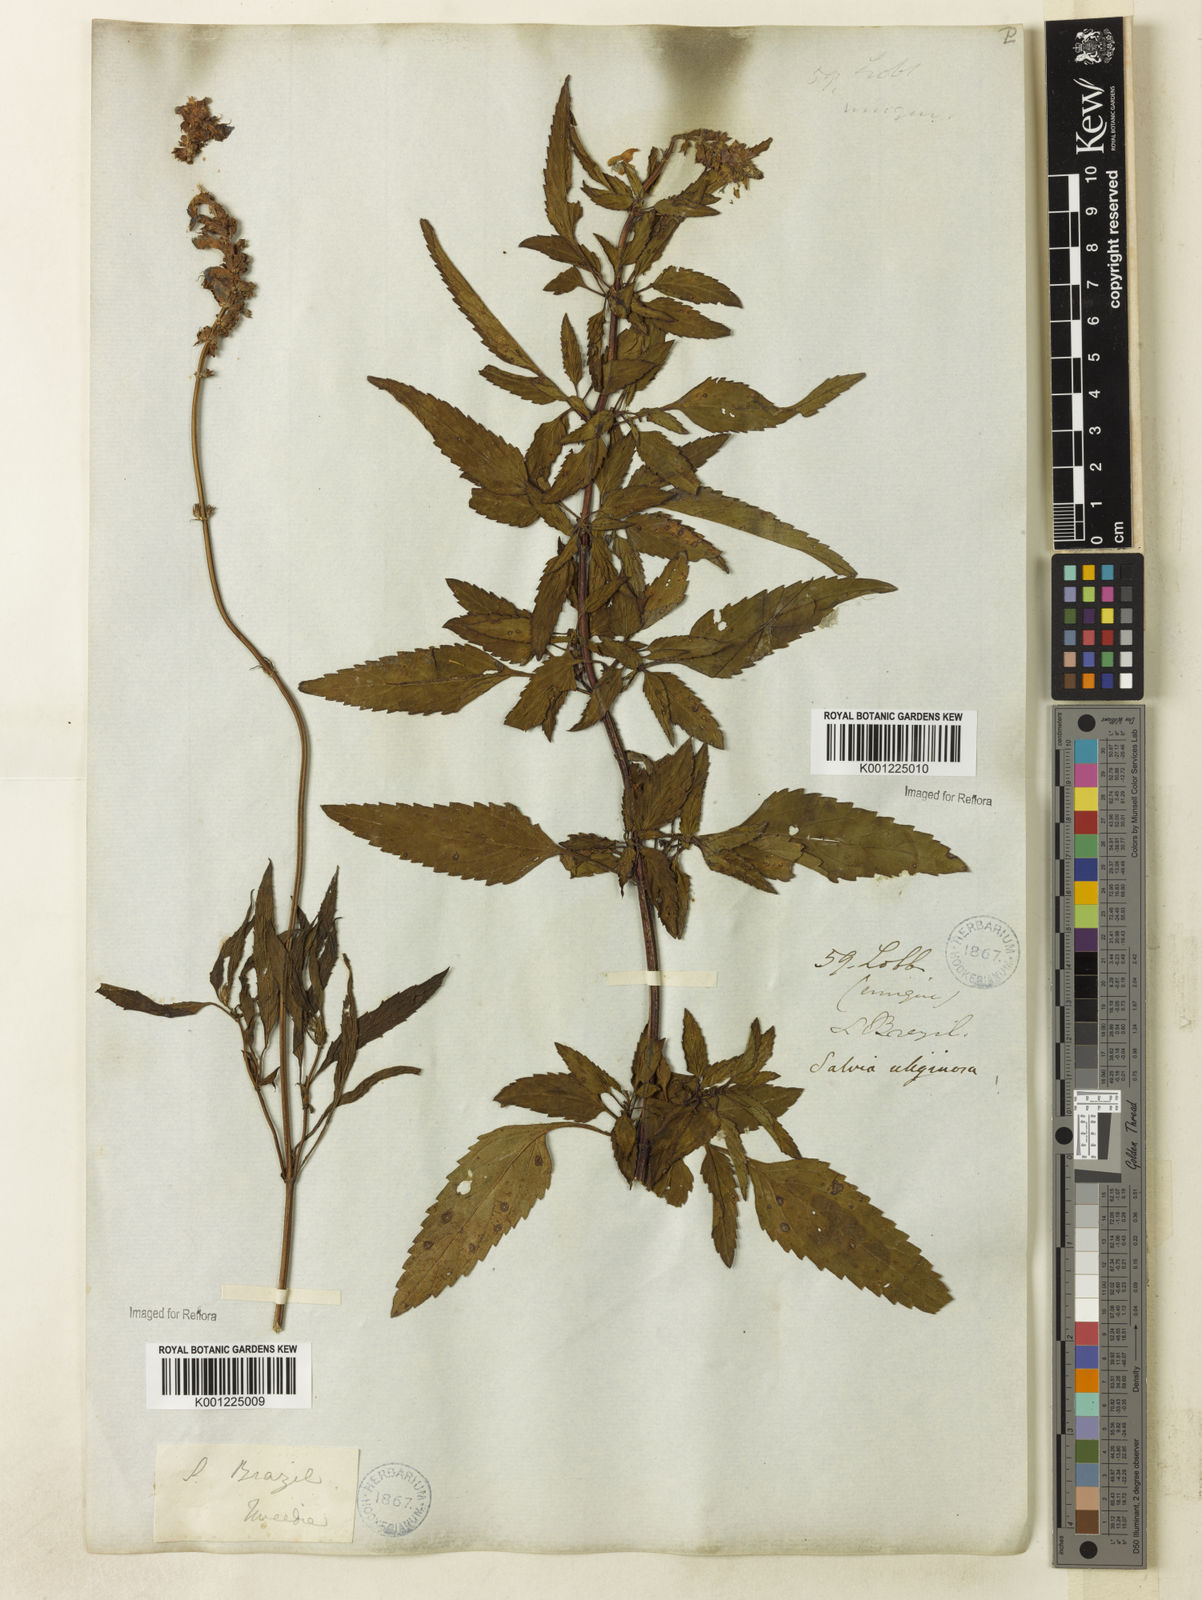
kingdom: Plantae
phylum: Tracheophyta
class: Magnoliopsida
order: Lamiales
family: Lamiaceae
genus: Salvia
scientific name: Salvia uliginosa
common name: Bog sage
